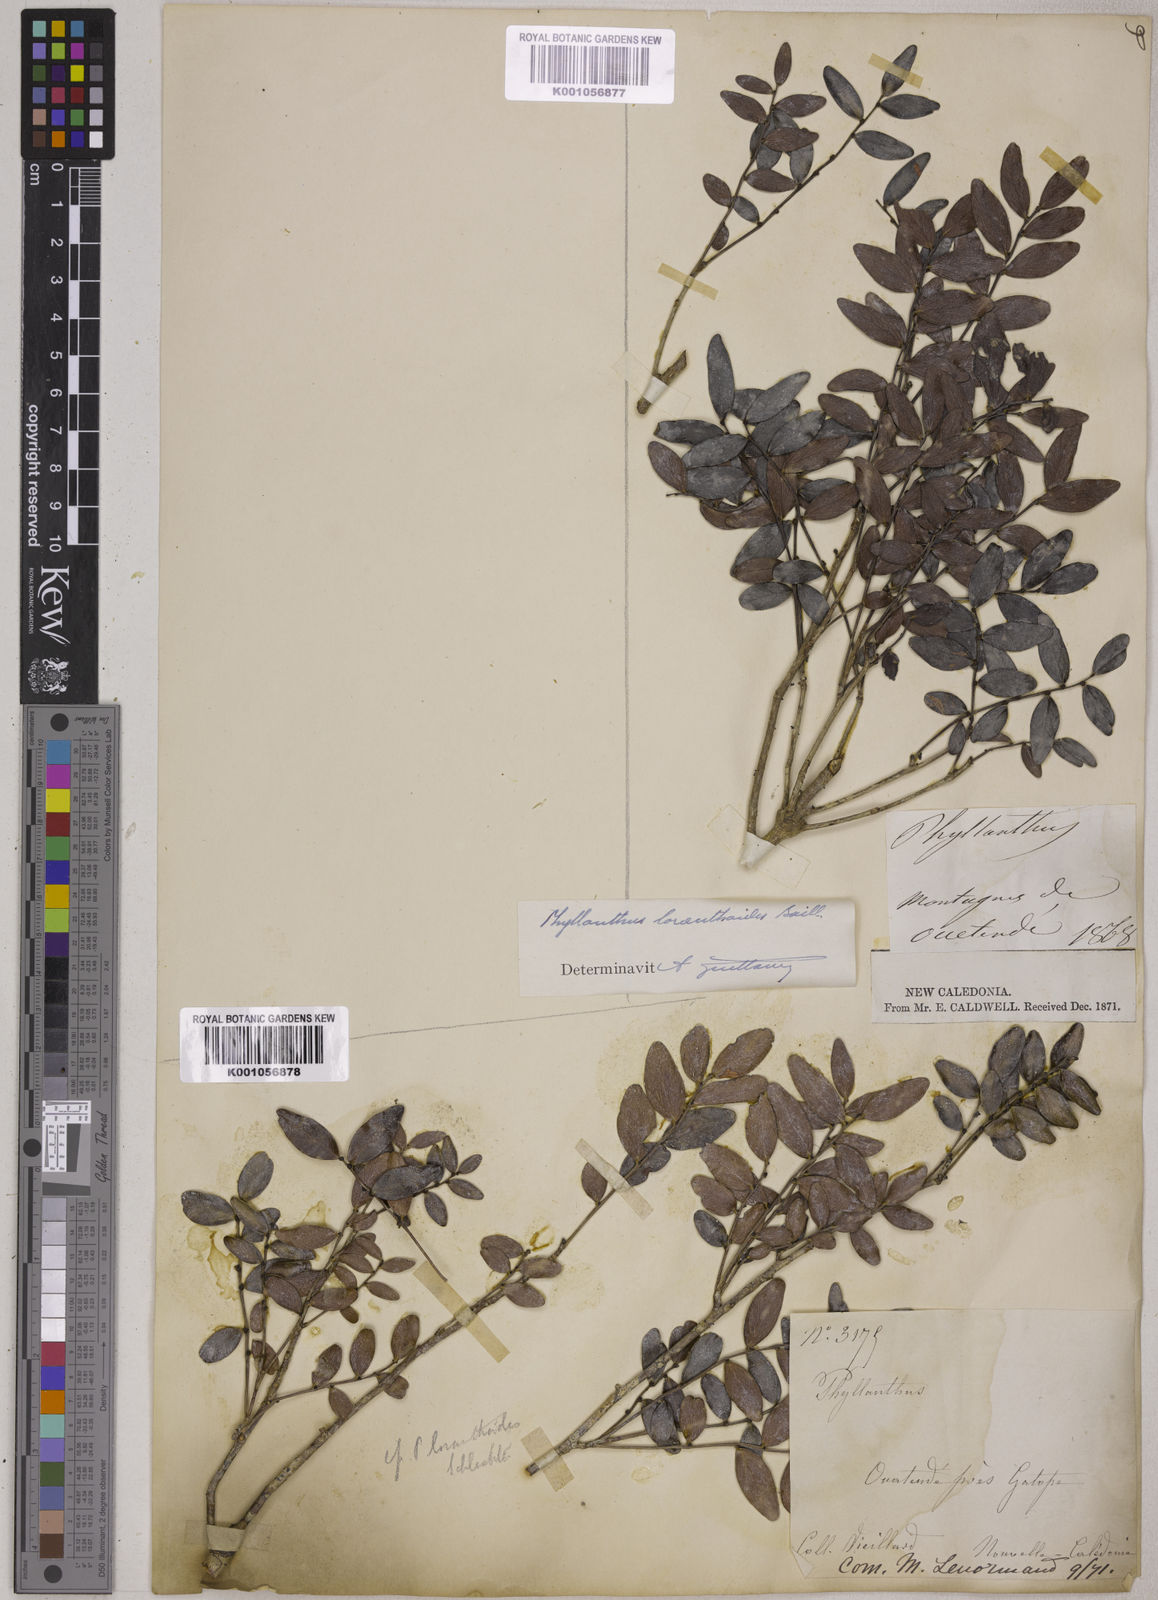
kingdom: Plantae
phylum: Tracheophyta
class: Magnoliopsida
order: Malpighiales
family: Phyllanthaceae
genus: Phyllanthus
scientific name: Phyllanthus loranthoides
